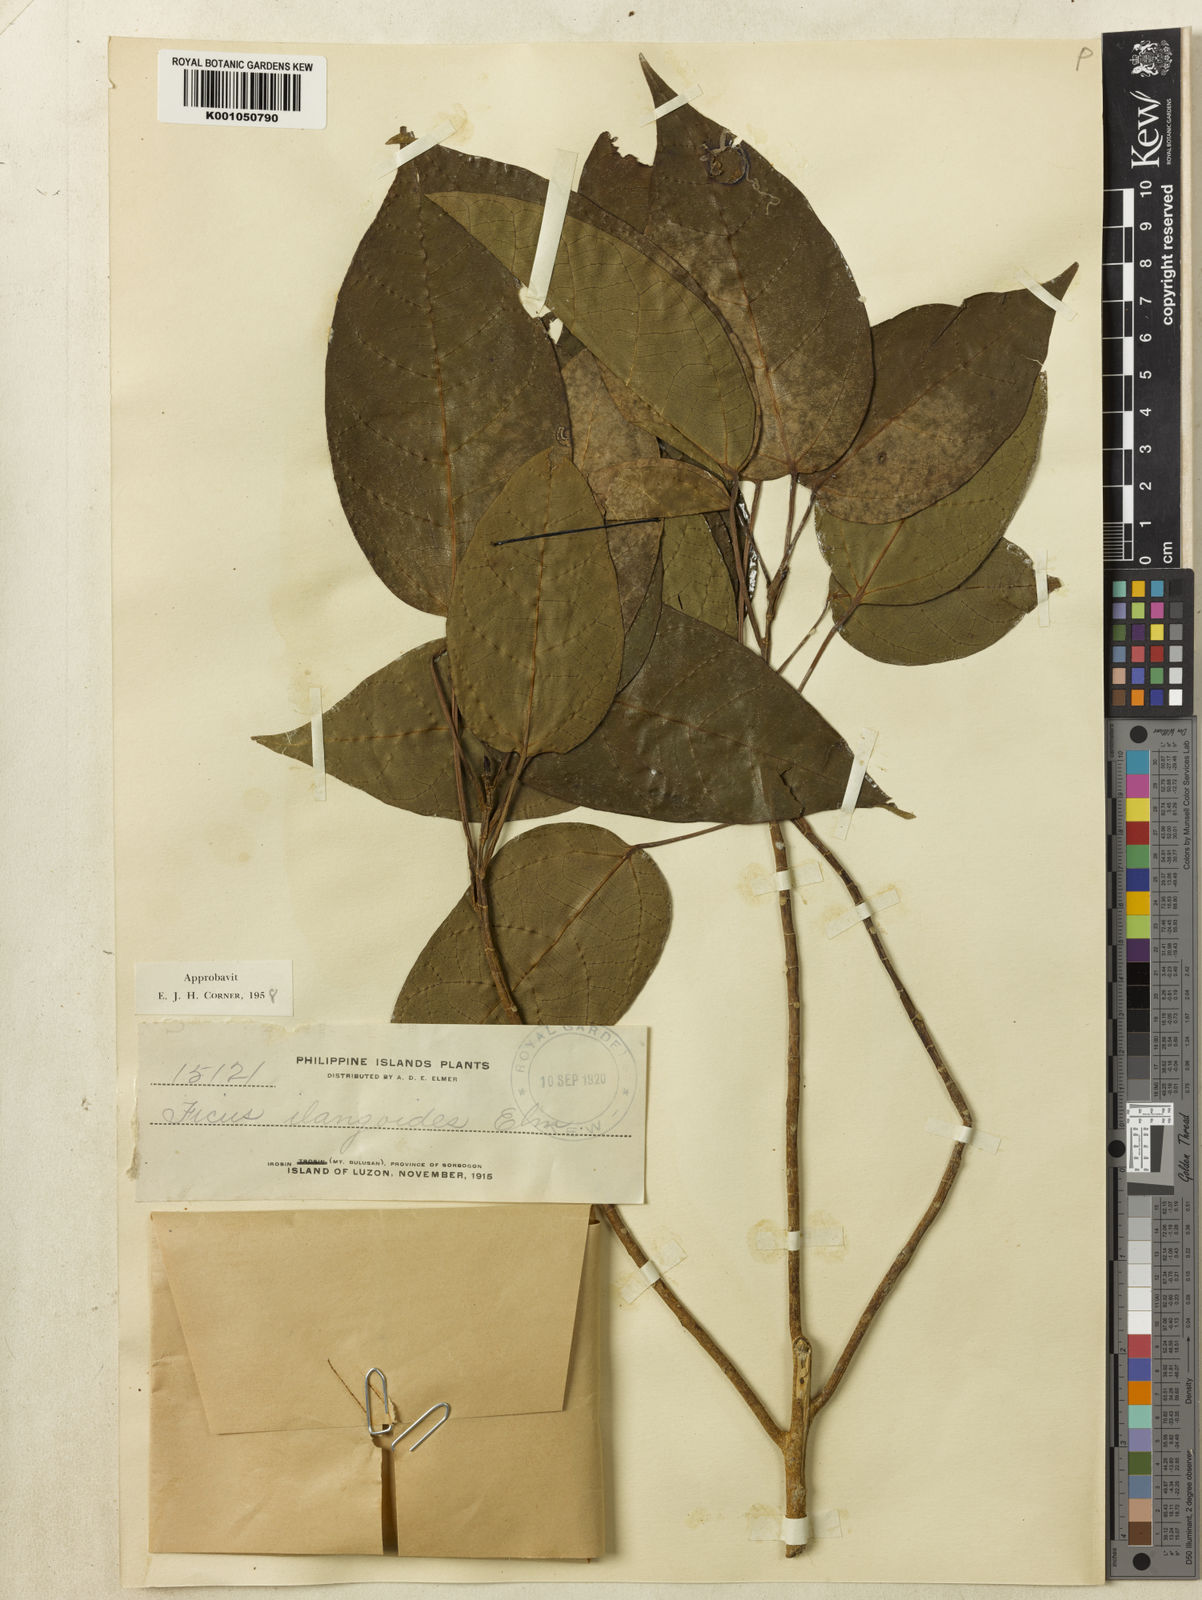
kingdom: Plantae
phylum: Tracheophyta
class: Magnoliopsida
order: Rosales
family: Moraceae
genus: Ficus
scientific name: Ficus variegata
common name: Variegated fig
